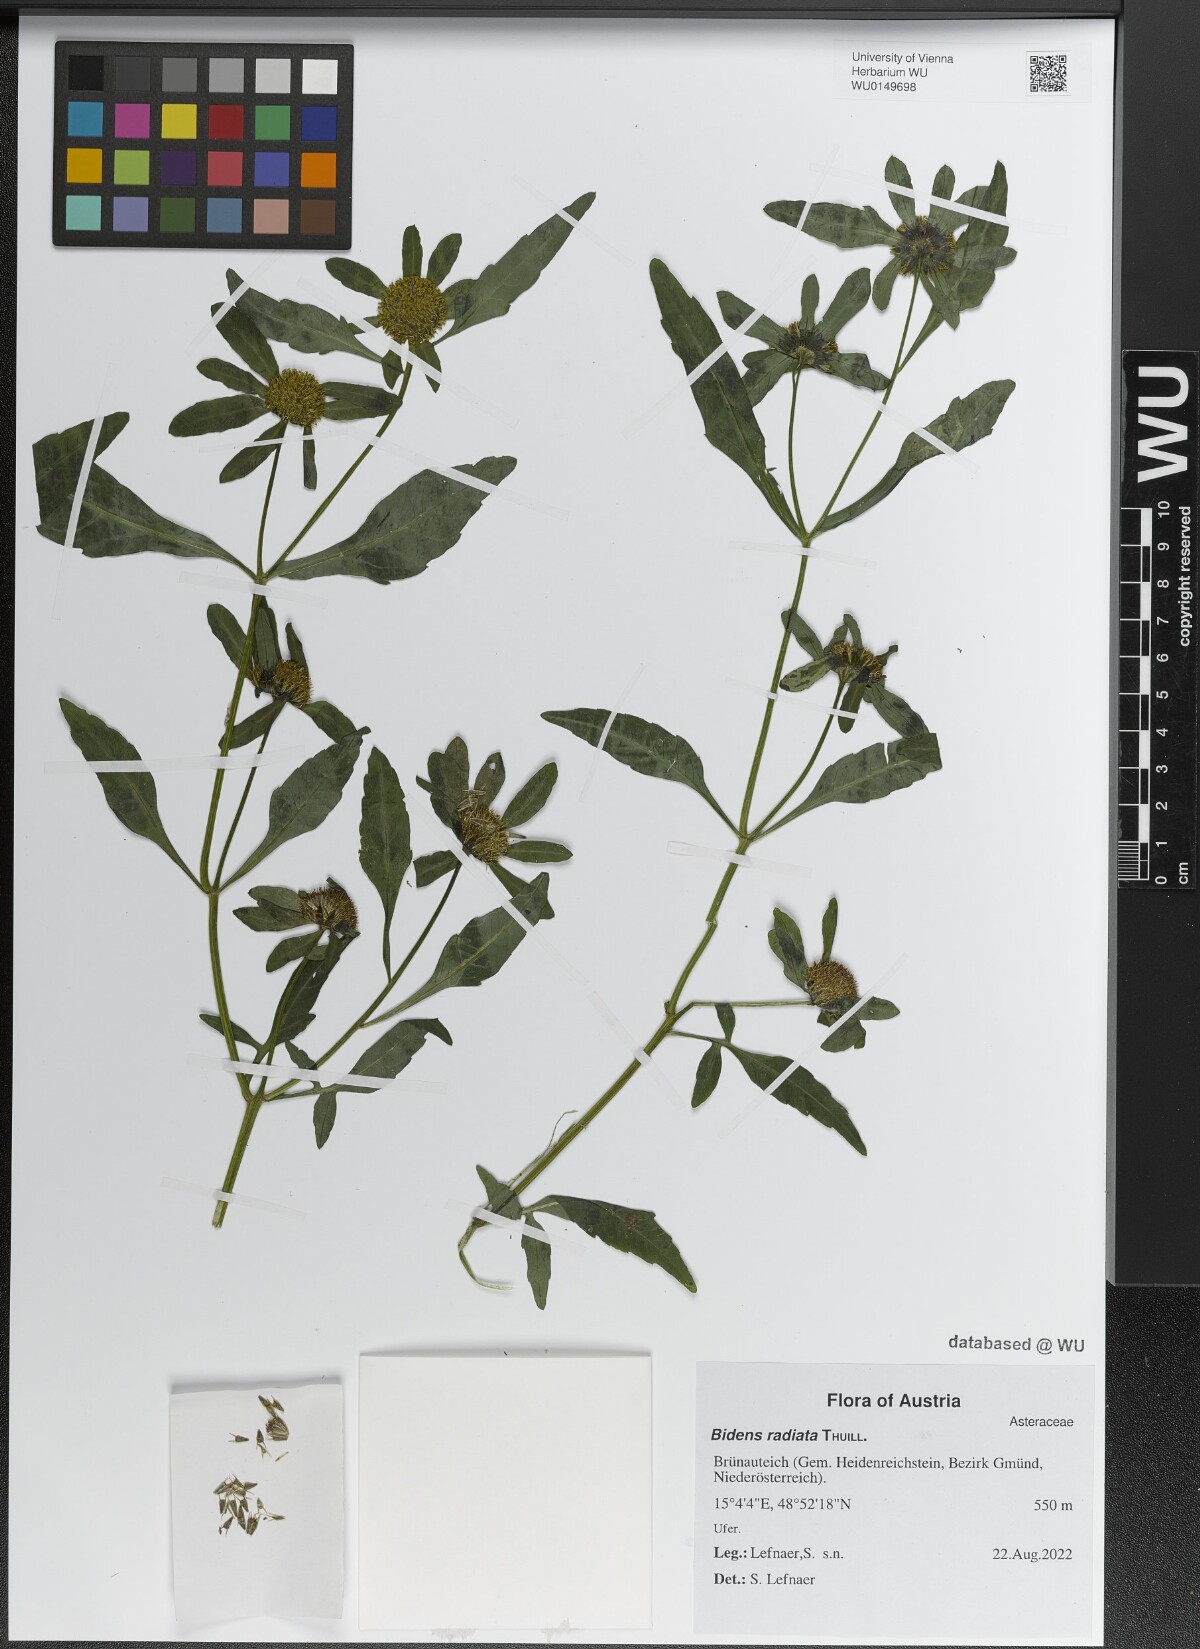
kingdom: Plantae
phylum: Tracheophyta
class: Magnoliopsida
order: Asterales
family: Asteraceae
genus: Bidens
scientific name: Bidens radiata
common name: Radiating bur-marigold
